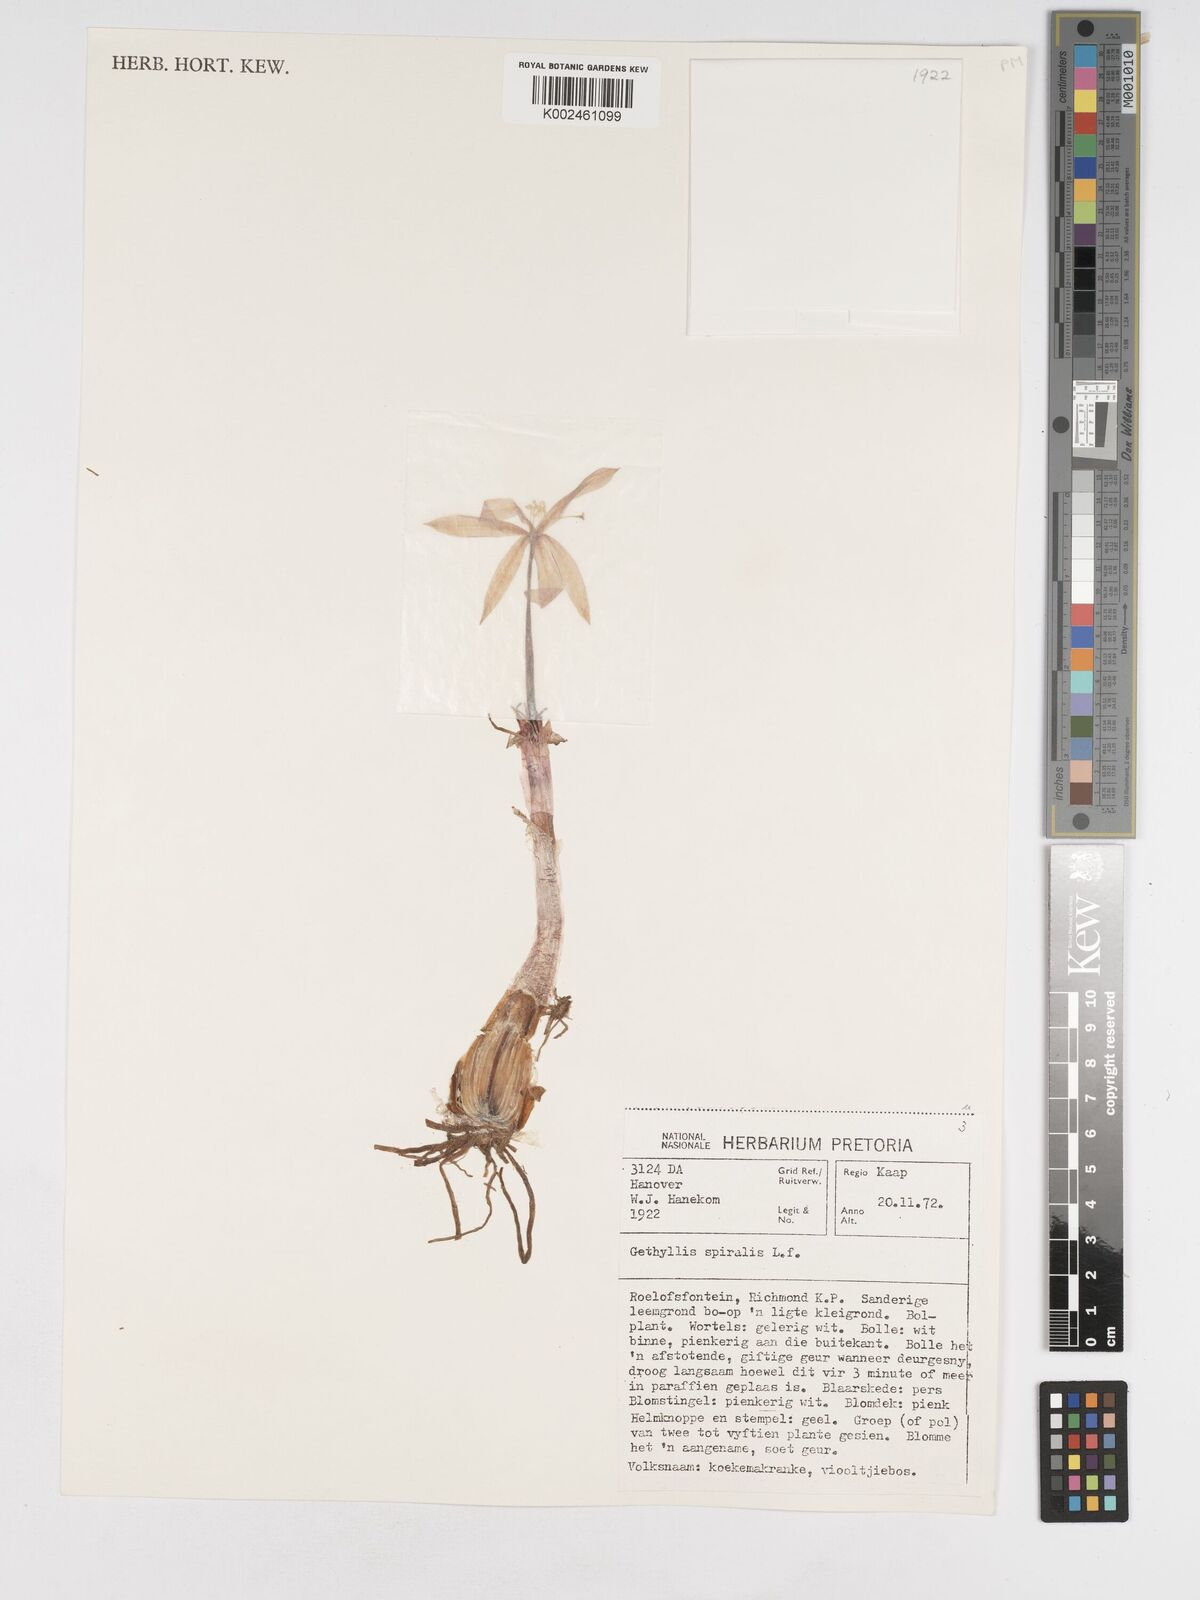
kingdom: Plantae
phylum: Tracheophyta
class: Liliopsida
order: Asparagales
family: Amaryllidaceae
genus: Gethyllis
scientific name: Gethyllis spiralis
